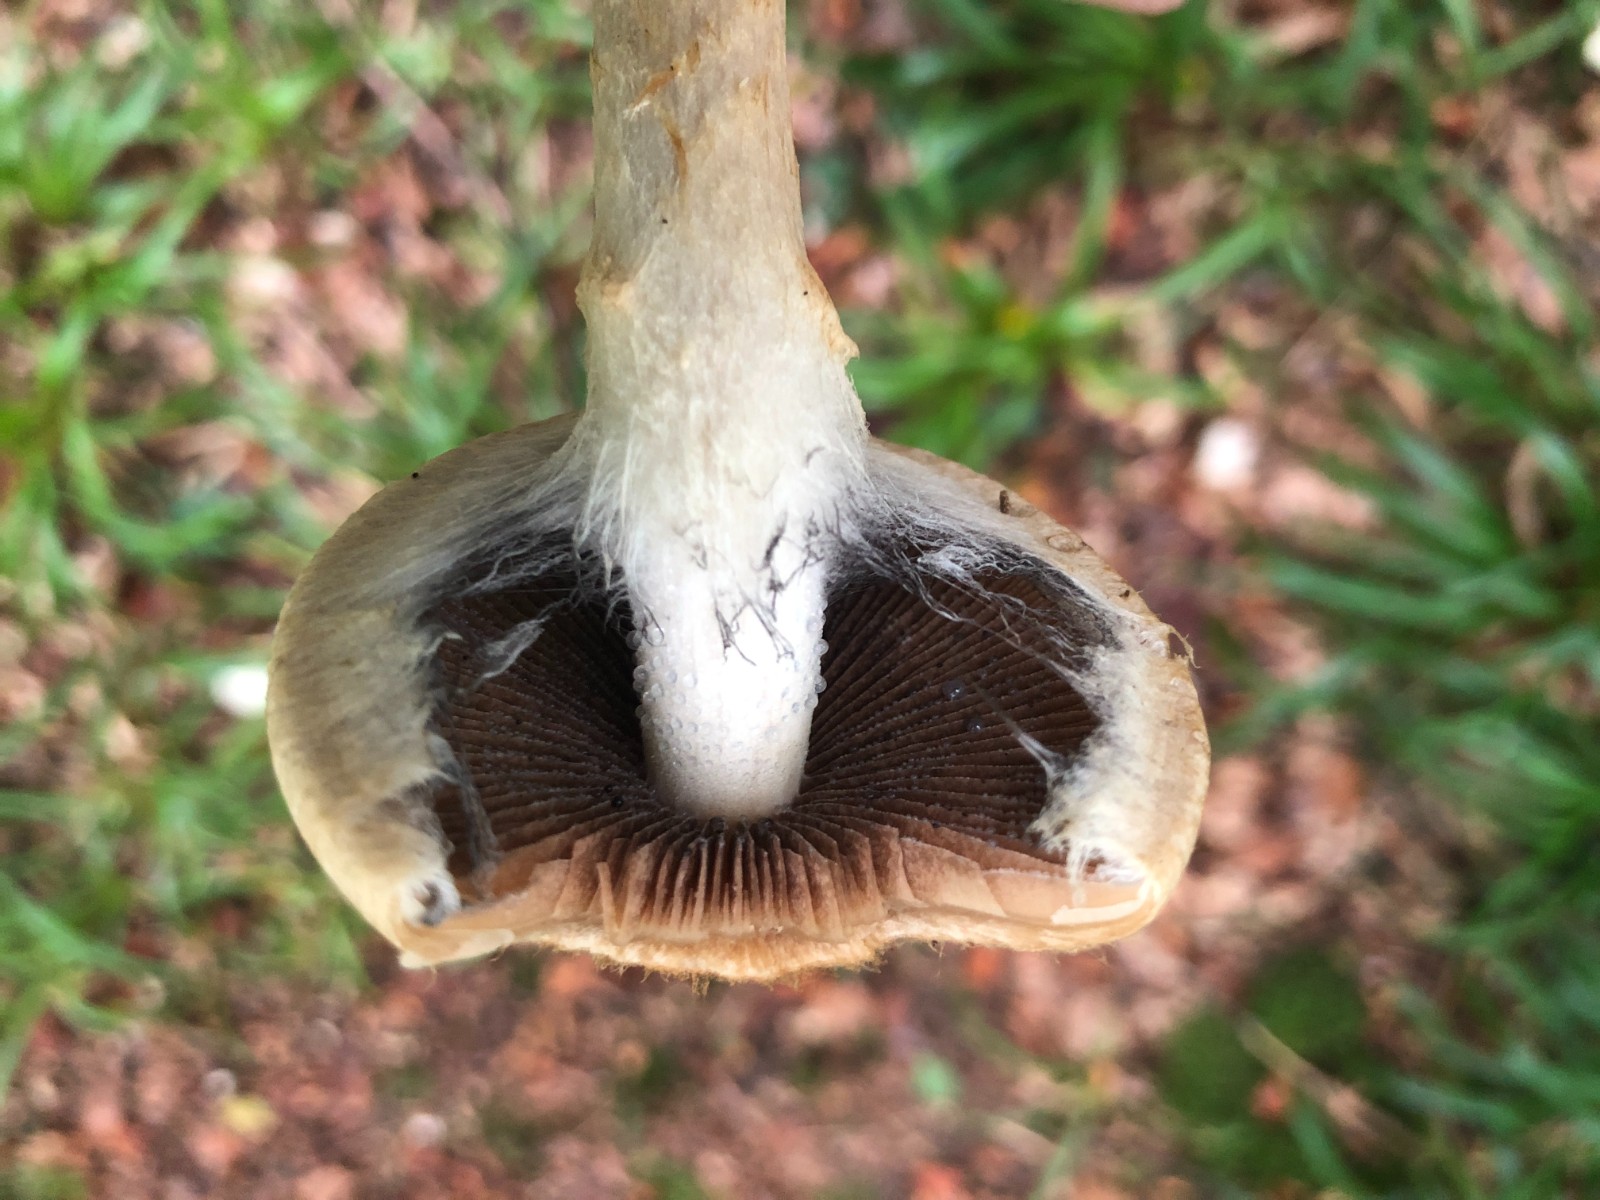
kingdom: Fungi
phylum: Basidiomycota
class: Agaricomycetes
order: Agaricales
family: Psathyrellaceae
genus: Lacrymaria
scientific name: Lacrymaria lacrymabunda
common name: grædende mørkhat
